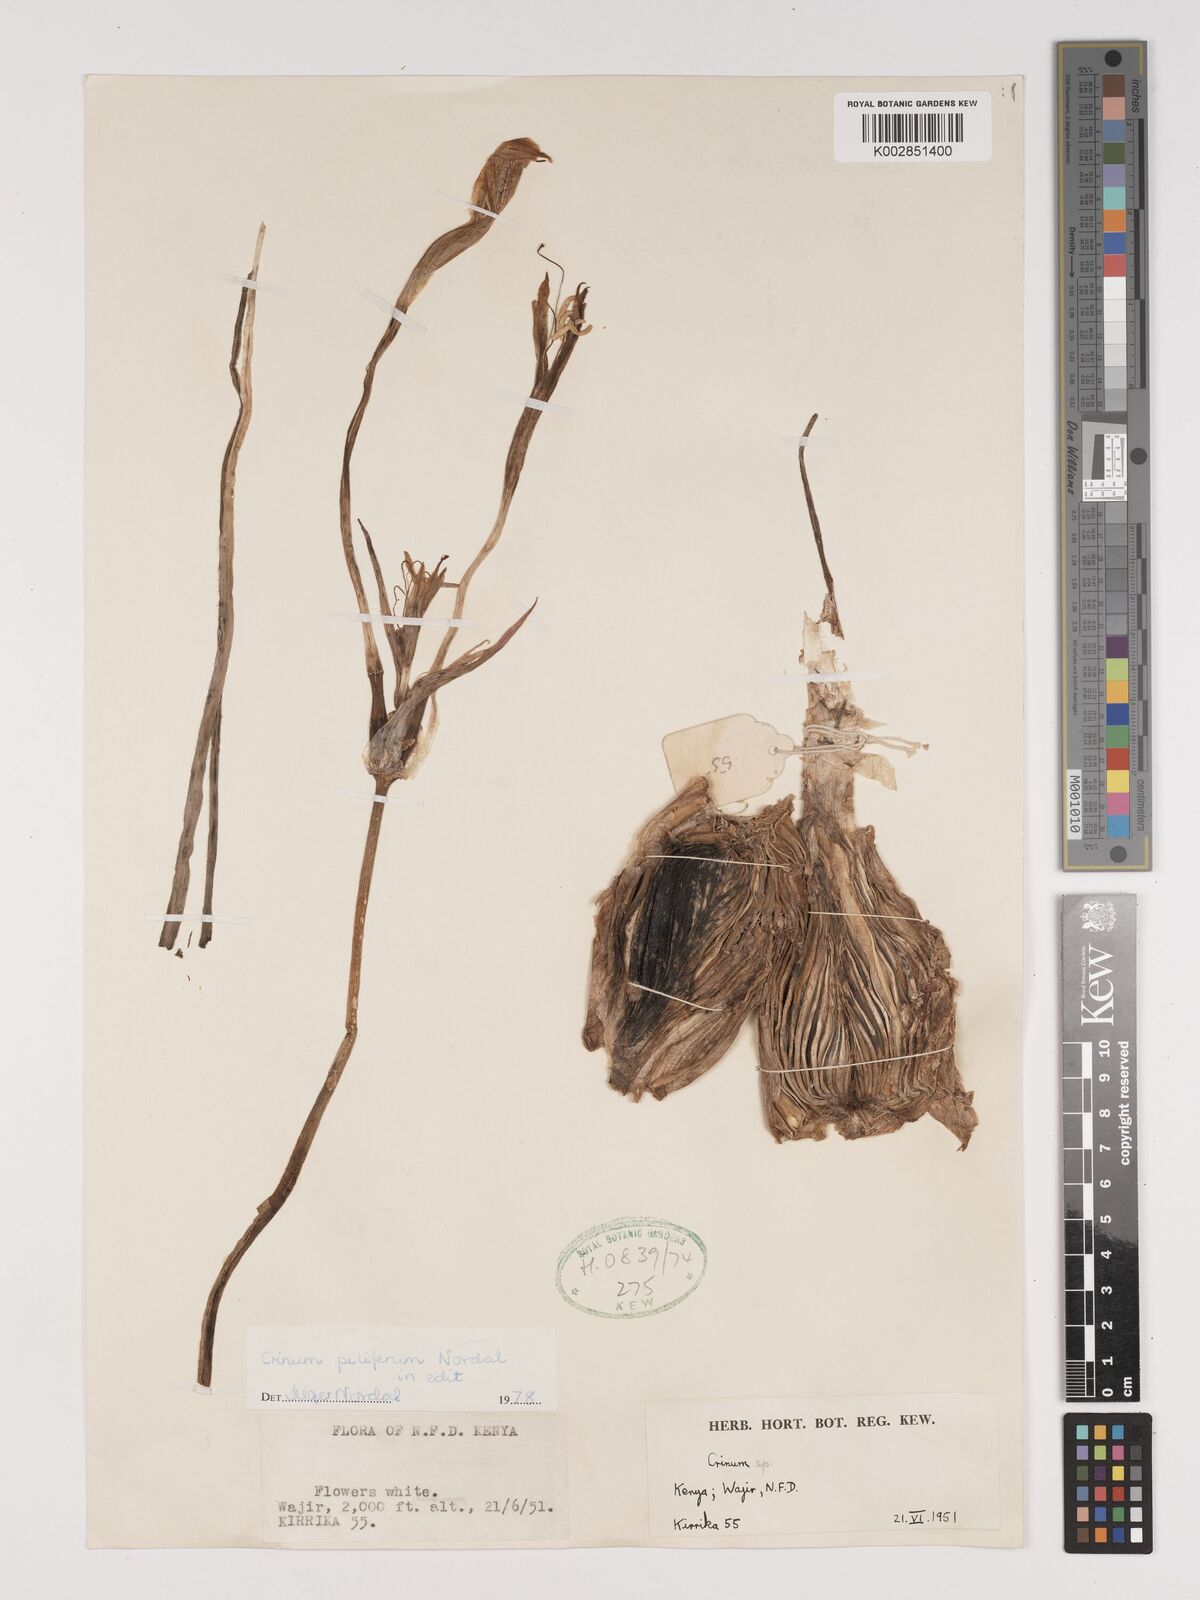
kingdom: Plantae
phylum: Tracheophyta
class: Liliopsida
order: Asparagales
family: Amaryllidaceae
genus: Crinum
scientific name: Crinum piliferum
